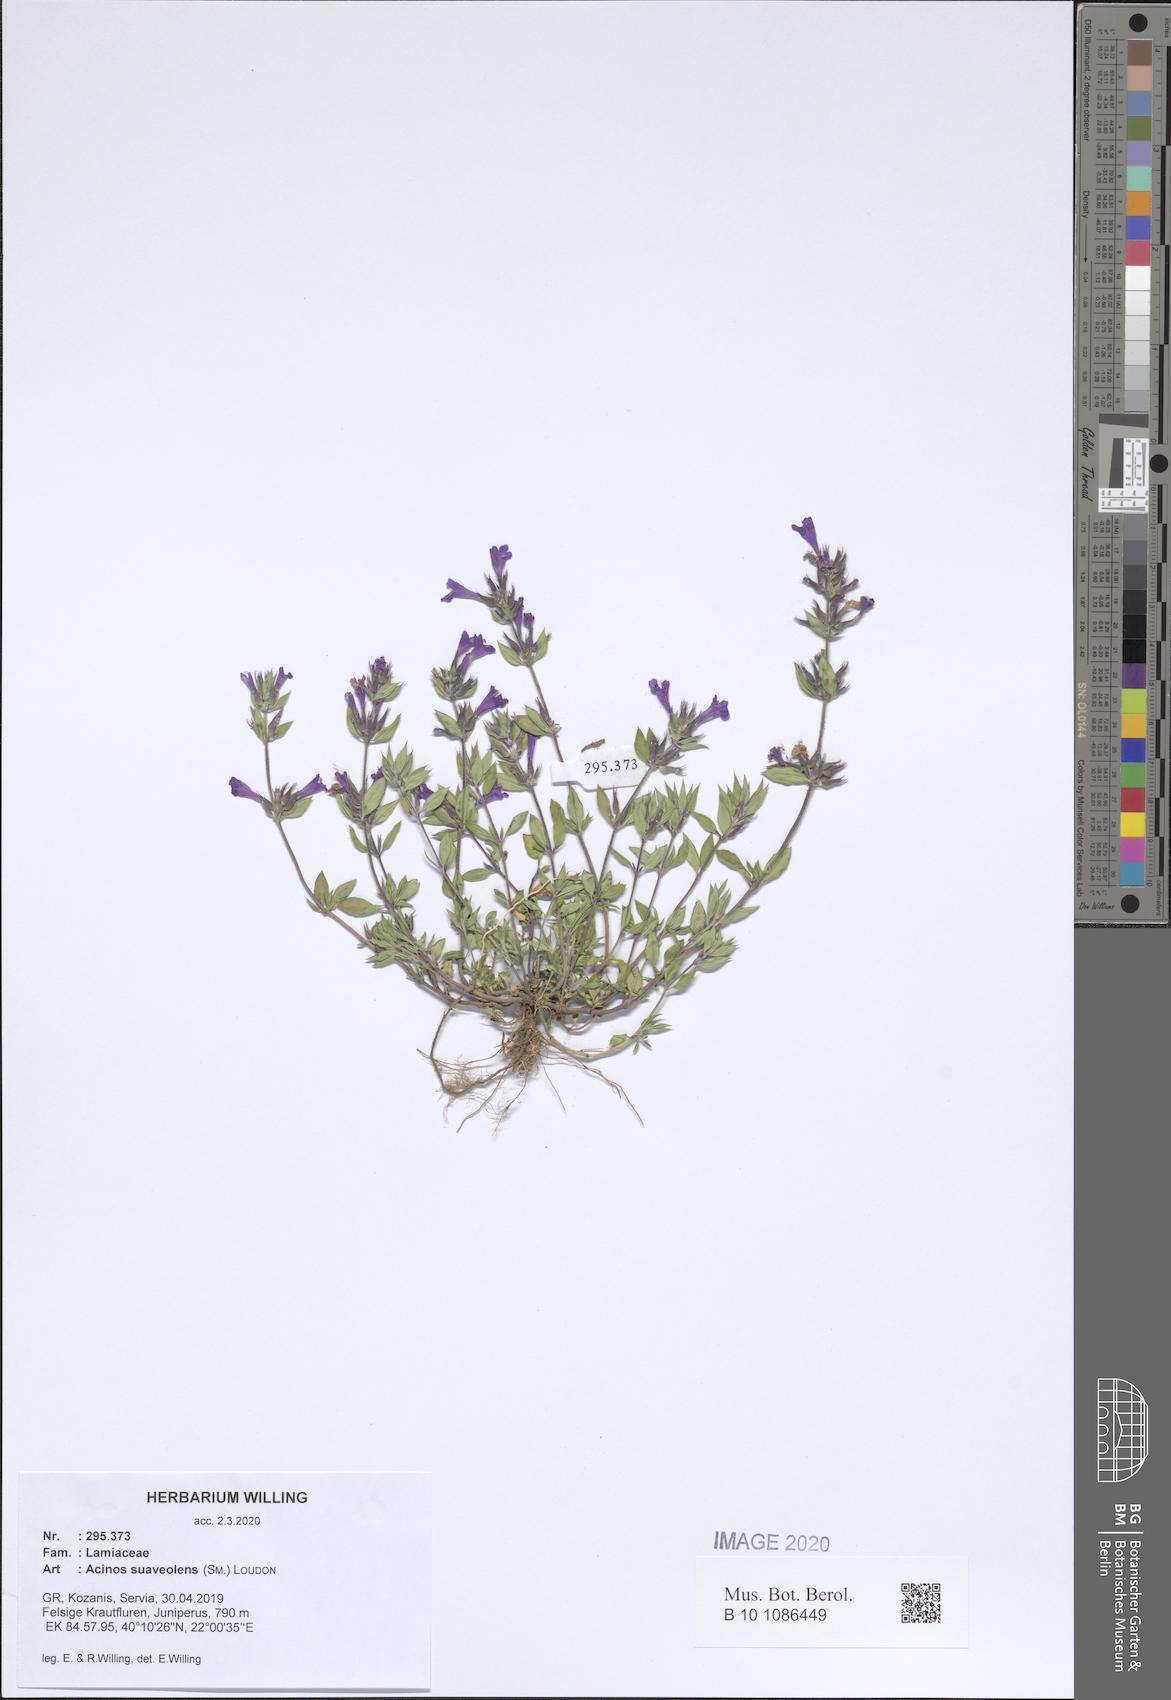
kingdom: Plantae
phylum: Tracheophyta
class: Magnoliopsida
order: Lamiales
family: Lamiaceae
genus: Clinopodium
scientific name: Clinopodium suaveolens
